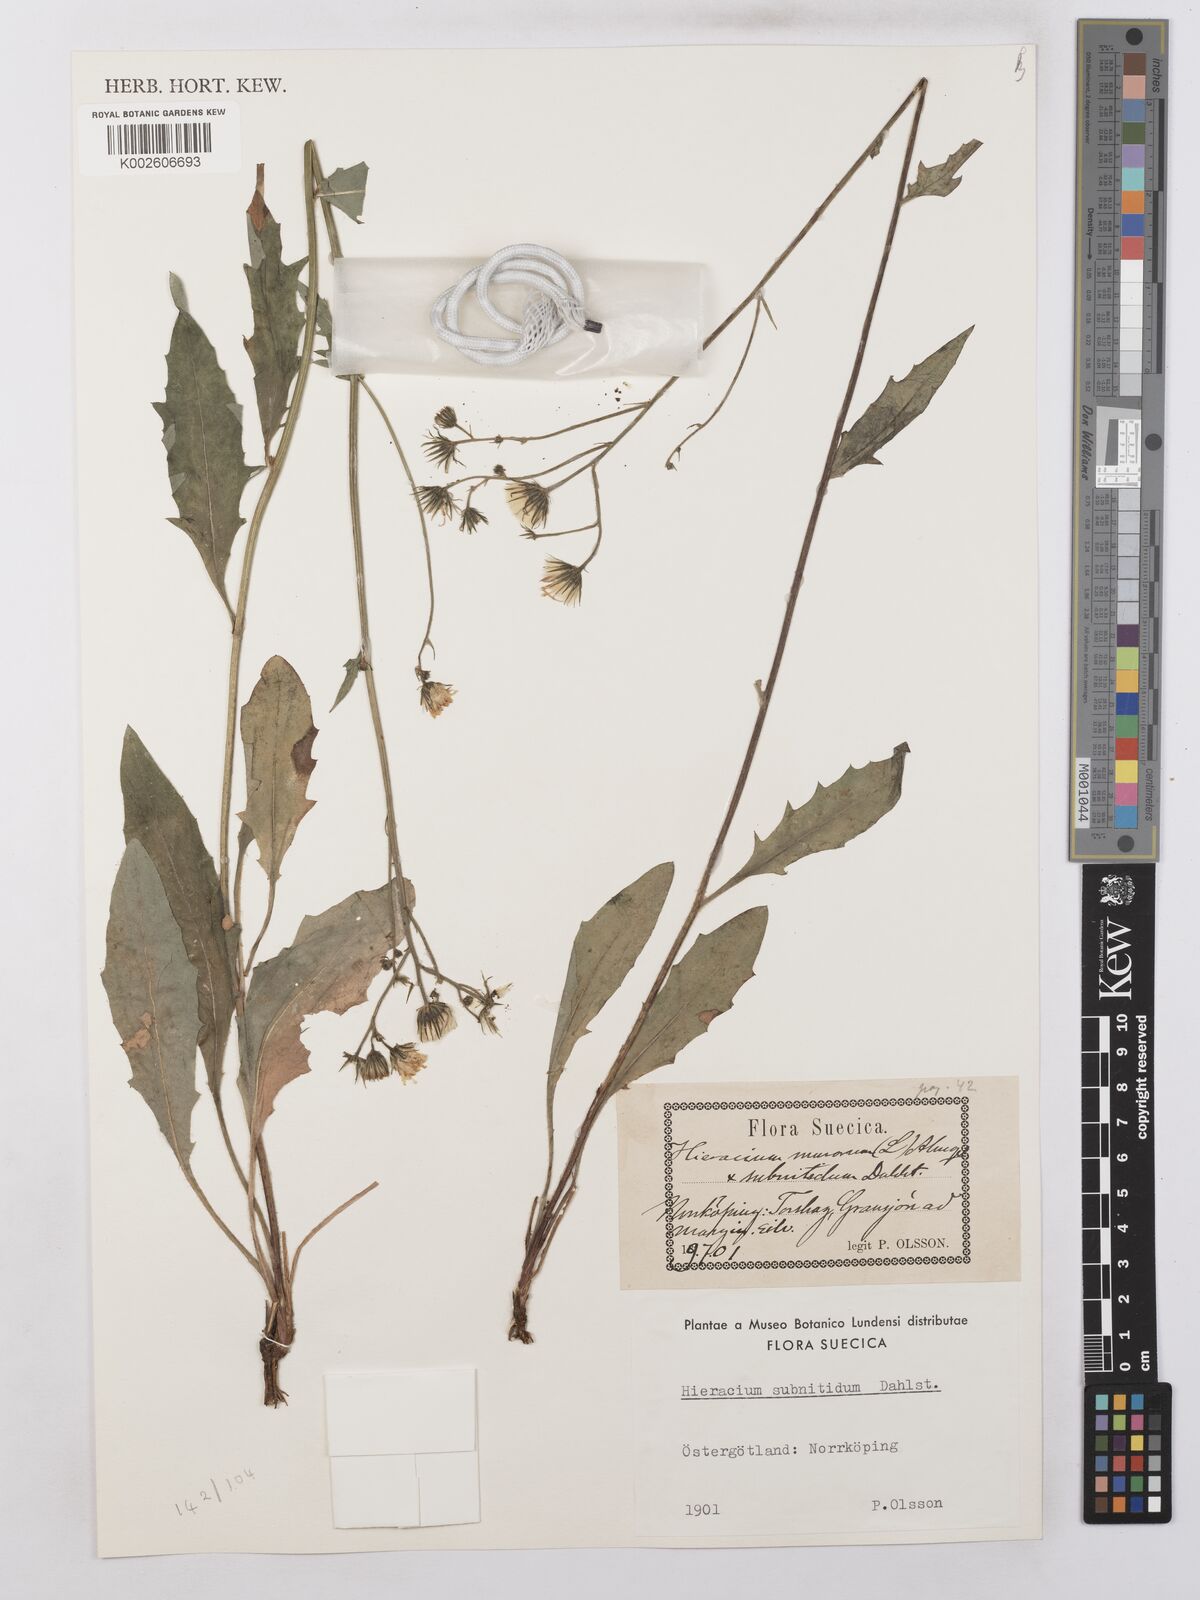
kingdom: Plantae
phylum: Tracheophyta
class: Magnoliopsida
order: Asterales
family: Asteraceae
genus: Hieracium
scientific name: Hieracium lachenalii
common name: Common hawkweed
